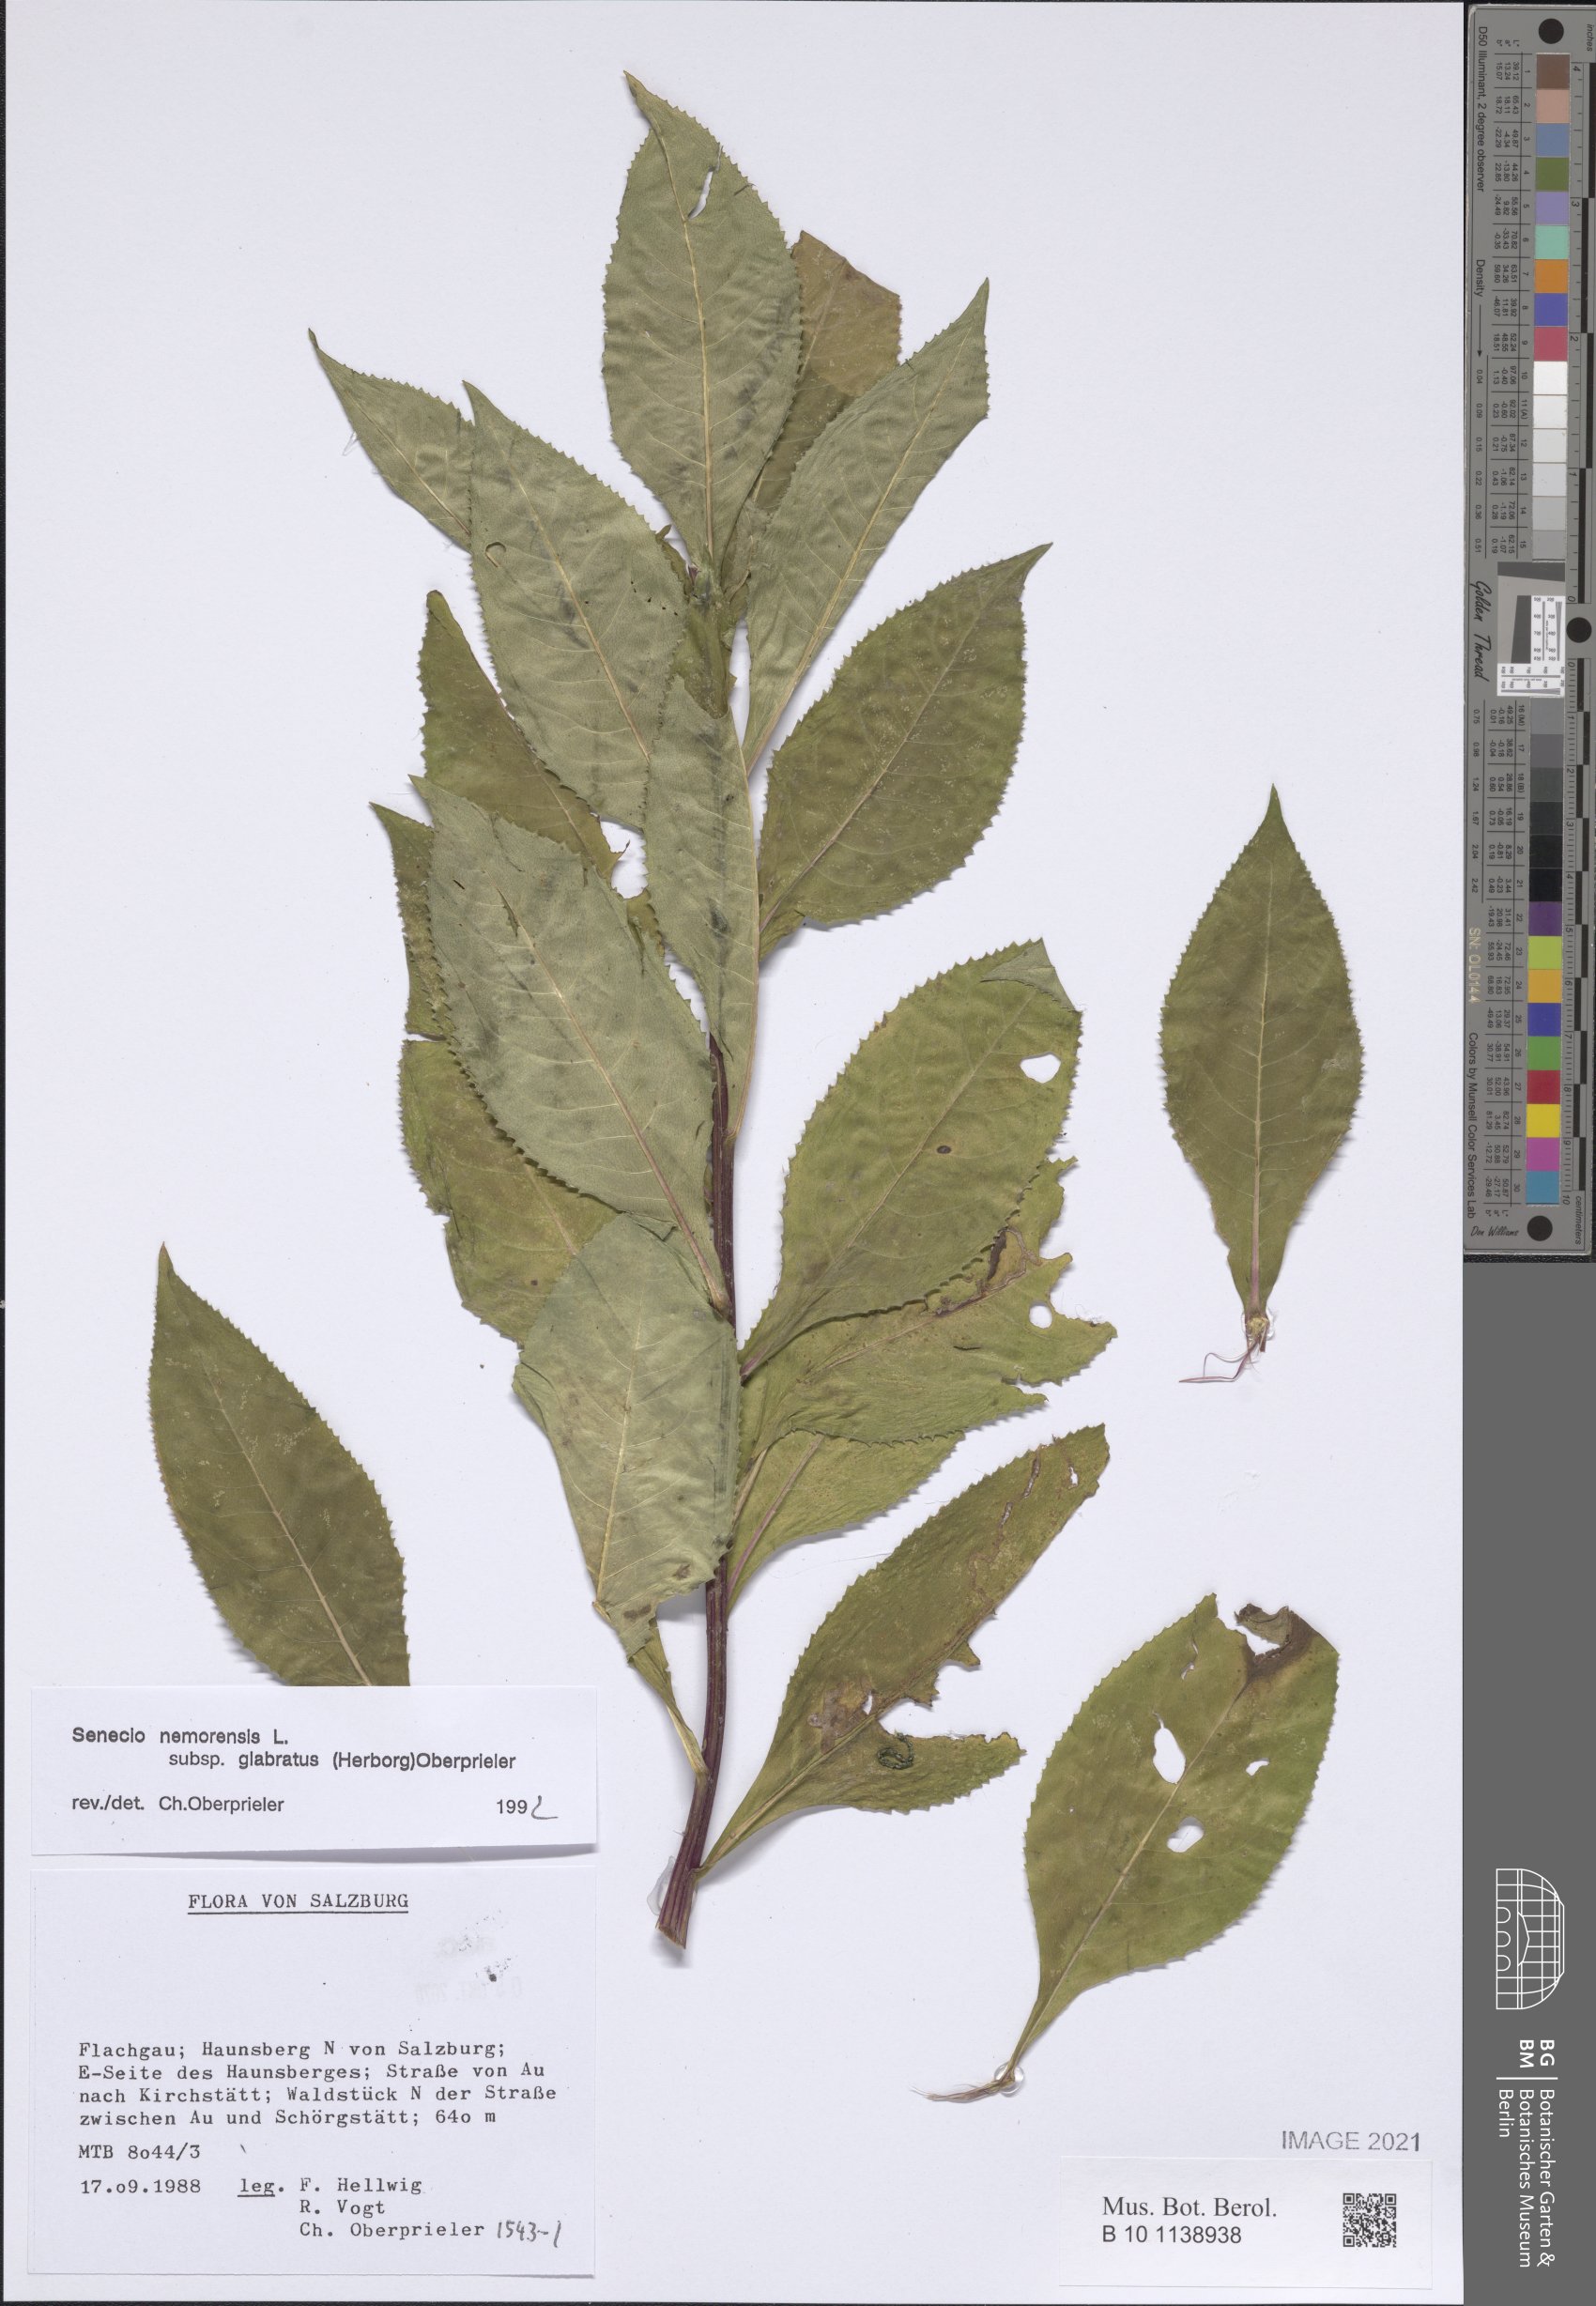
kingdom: Plantae
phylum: Tracheophyta
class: Magnoliopsida
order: Asterales
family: Asteraceae
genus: Senecio
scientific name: Senecio germanicus
